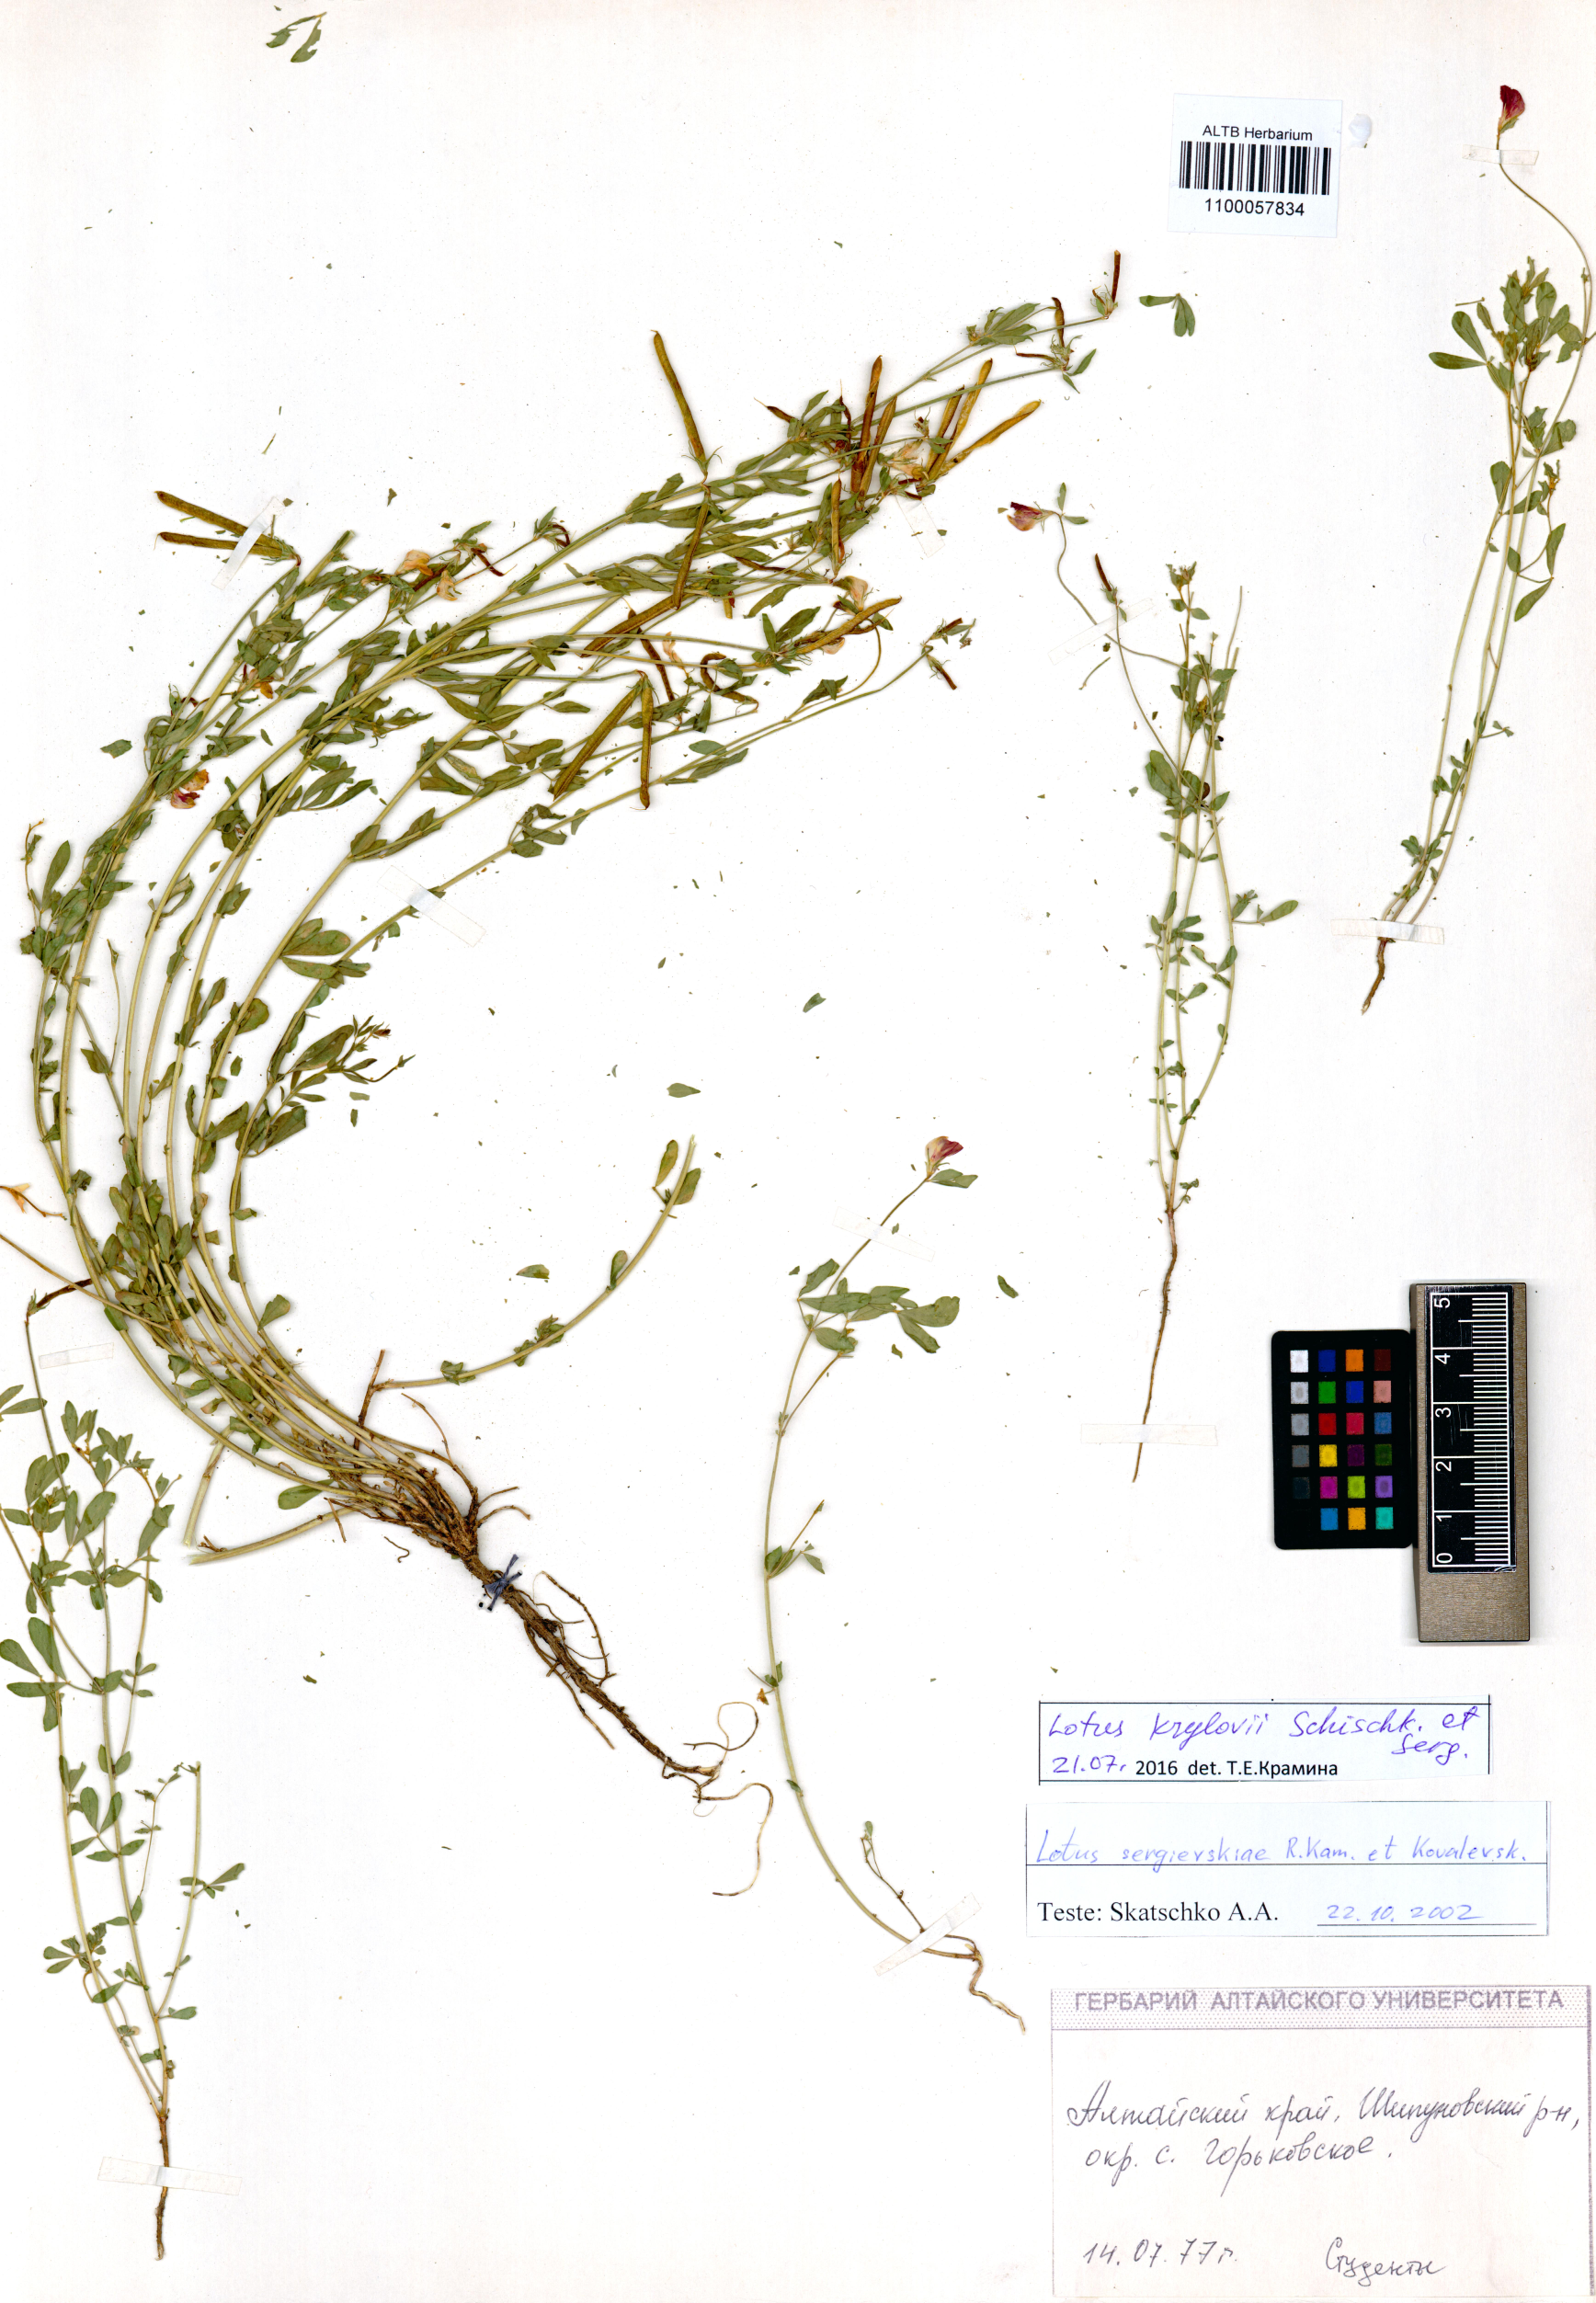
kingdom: Plantae
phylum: Tracheophyta
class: Magnoliopsida
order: Fabales
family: Fabaceae
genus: Lotus
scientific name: Lotus krylovii
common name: Krylov's bird's-foot trefoil
